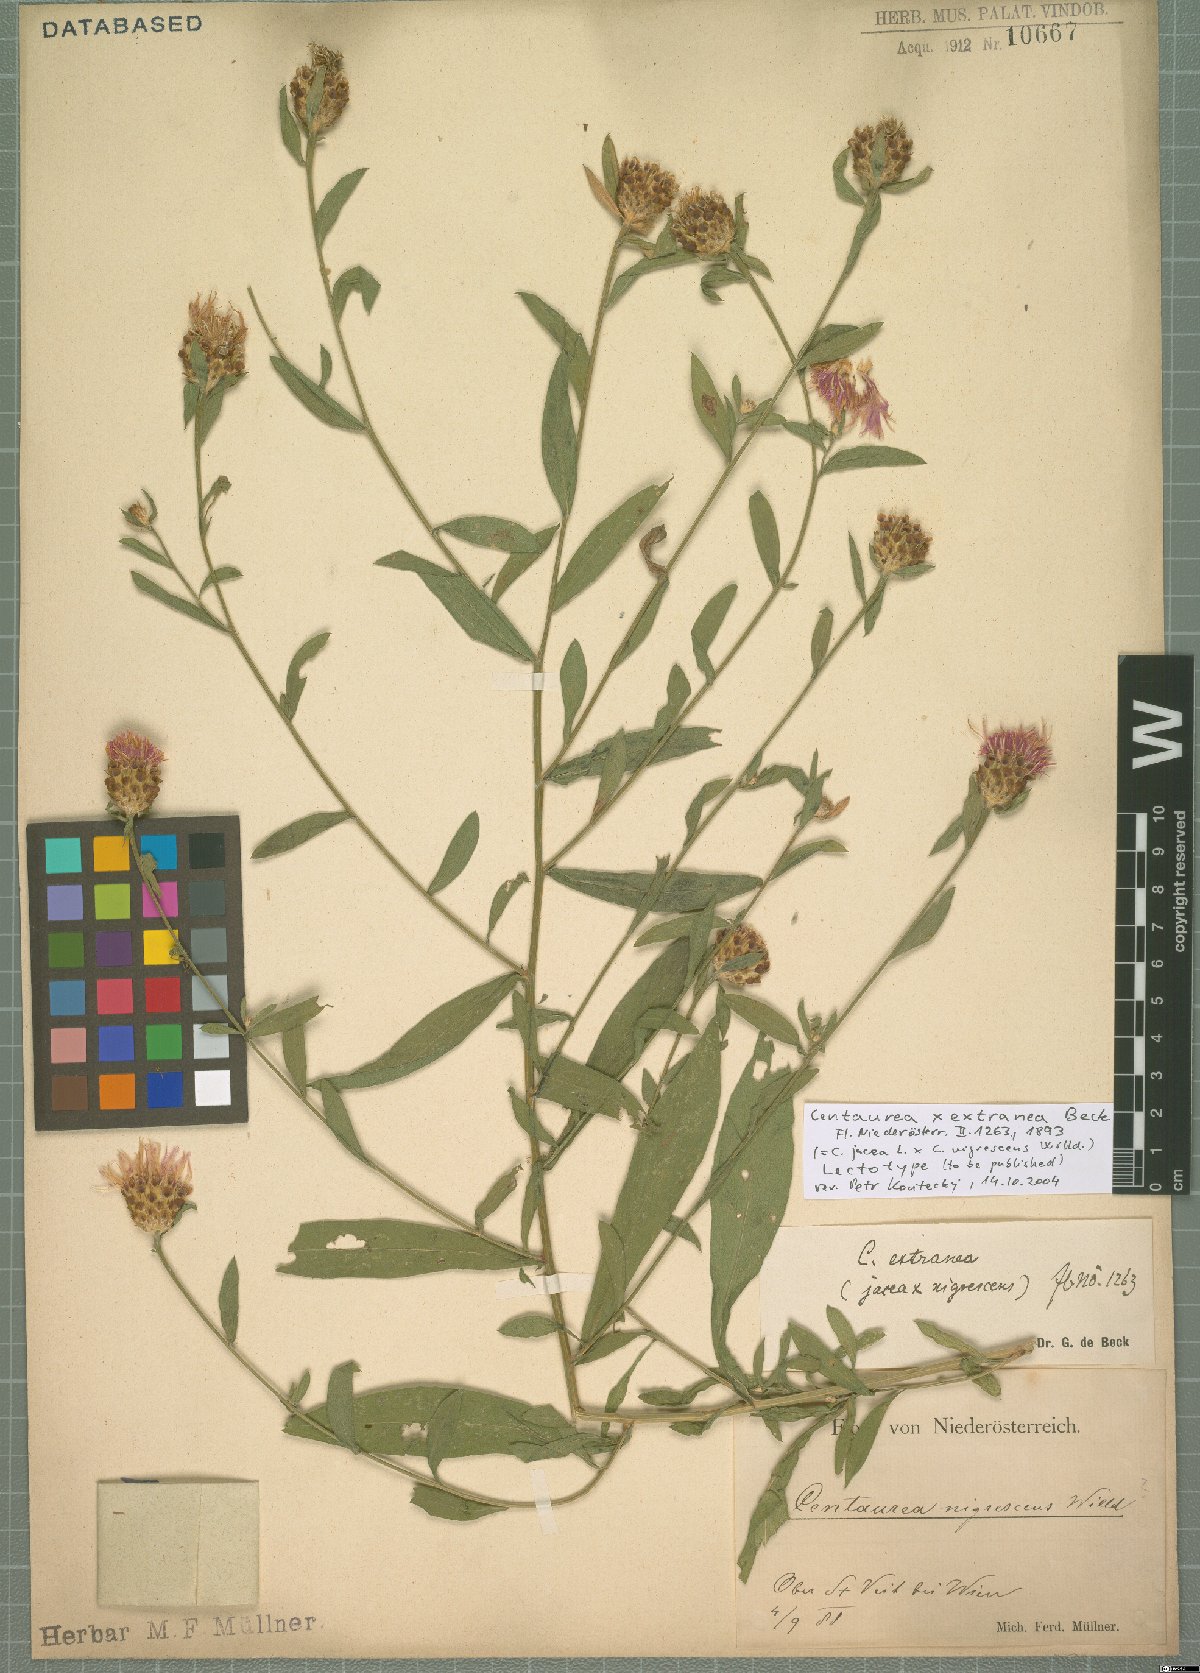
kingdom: Plantae
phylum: Tracheophyta
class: Magnoliopsida
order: Asterales
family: Asteraceae
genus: Centaurea
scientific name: Centaurea extranea
